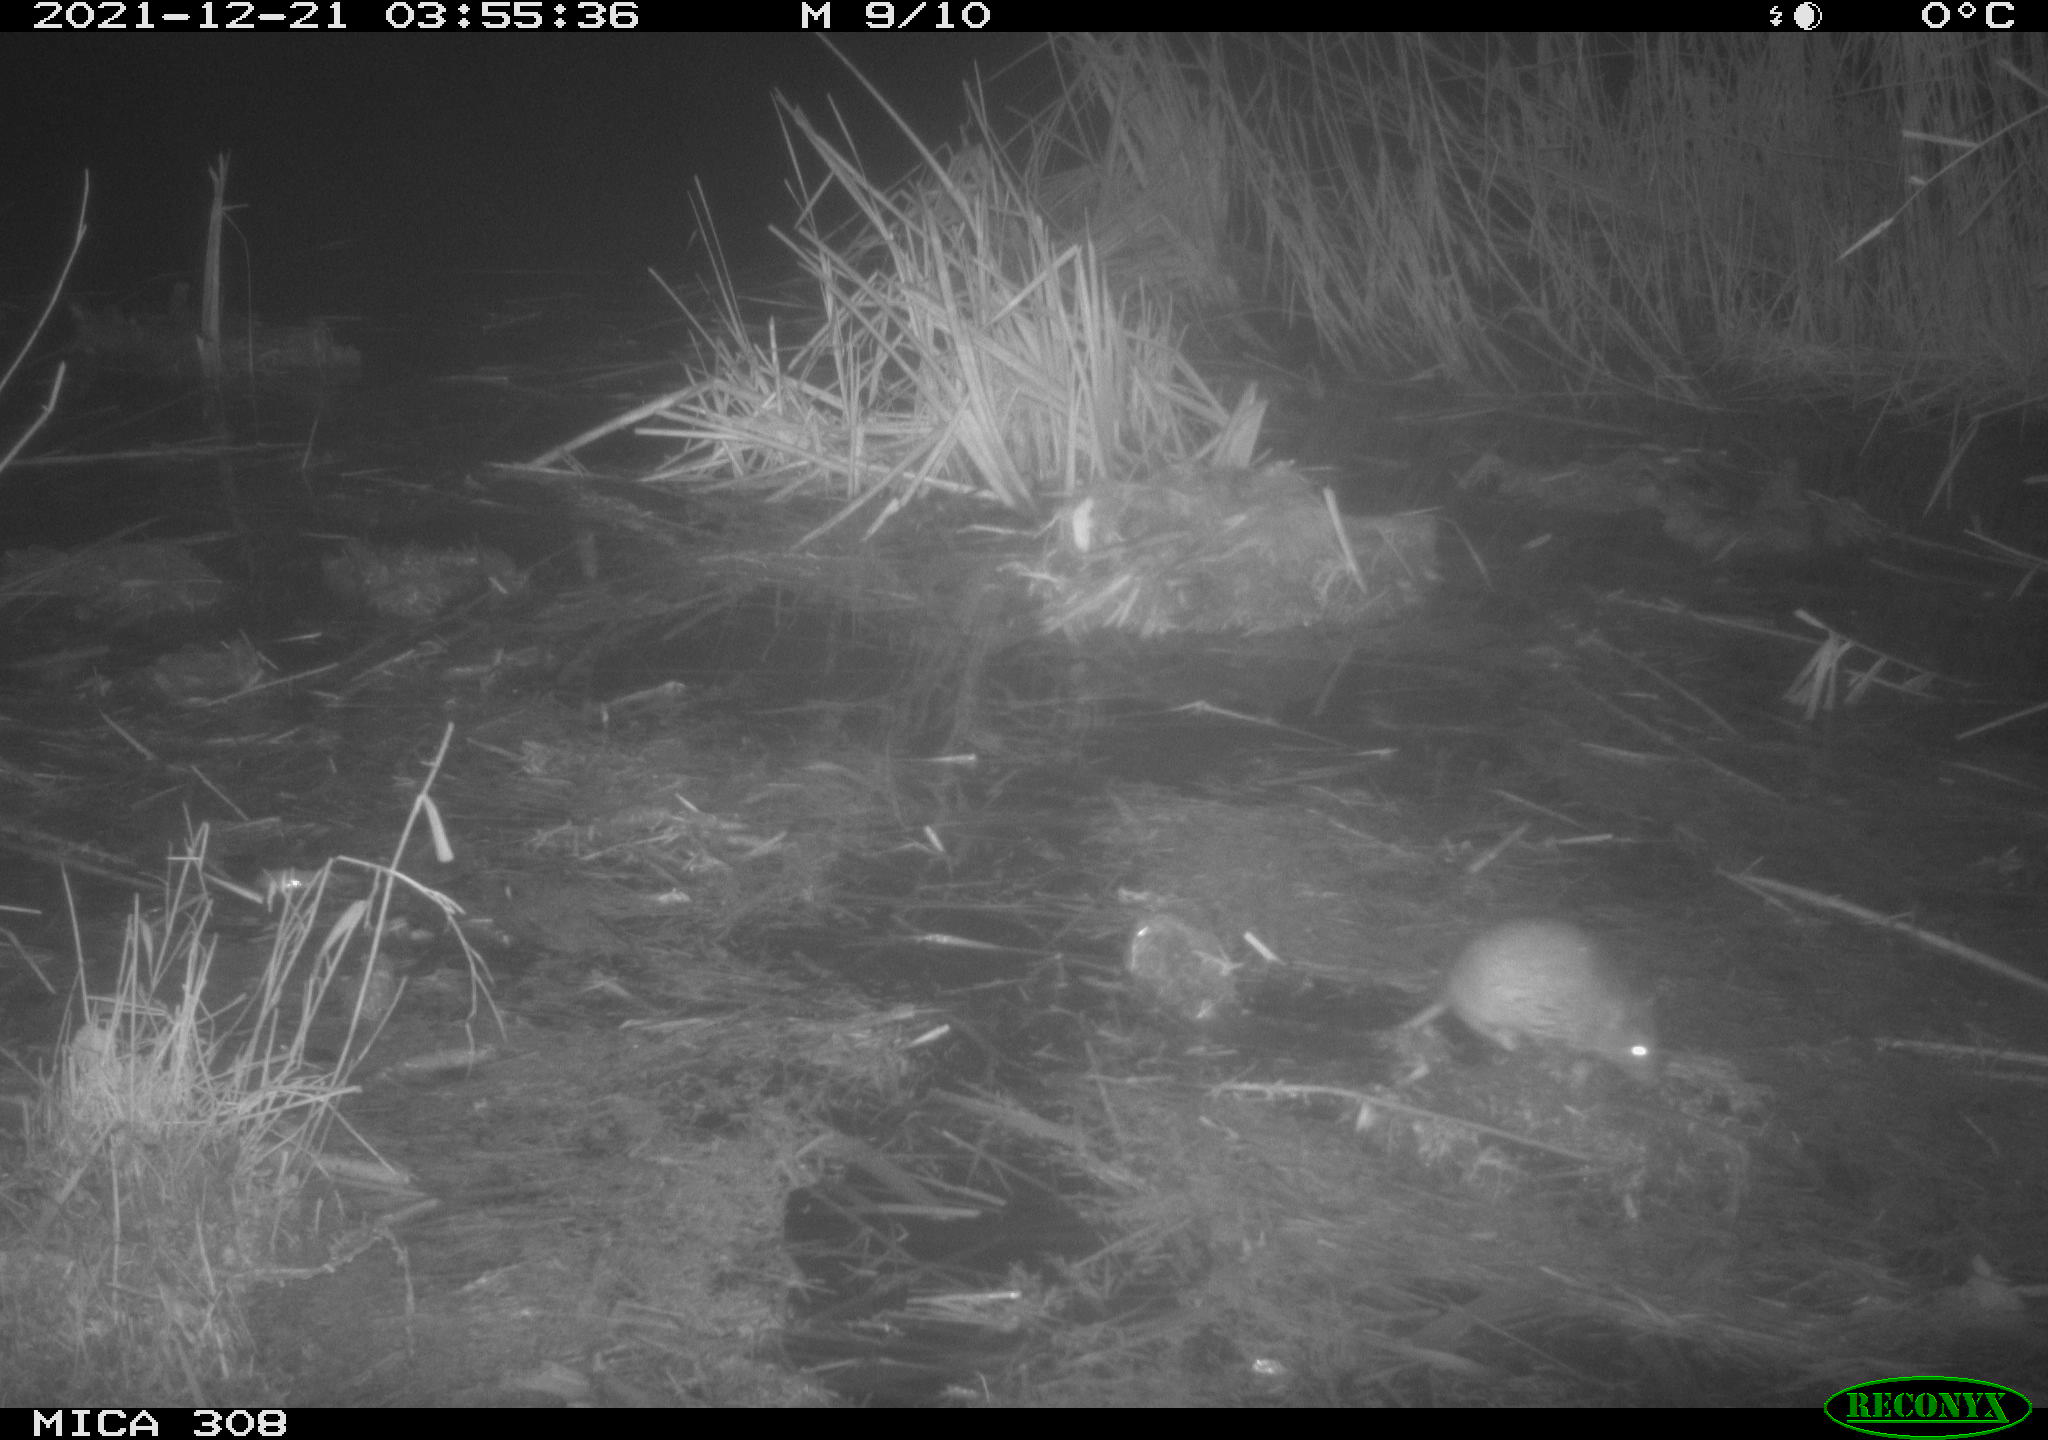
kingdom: Animalia
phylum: Chordata
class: Mammalia
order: Rodentia
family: Muridae
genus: Rattus
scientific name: Rattus norvegicus
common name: Brown rat
